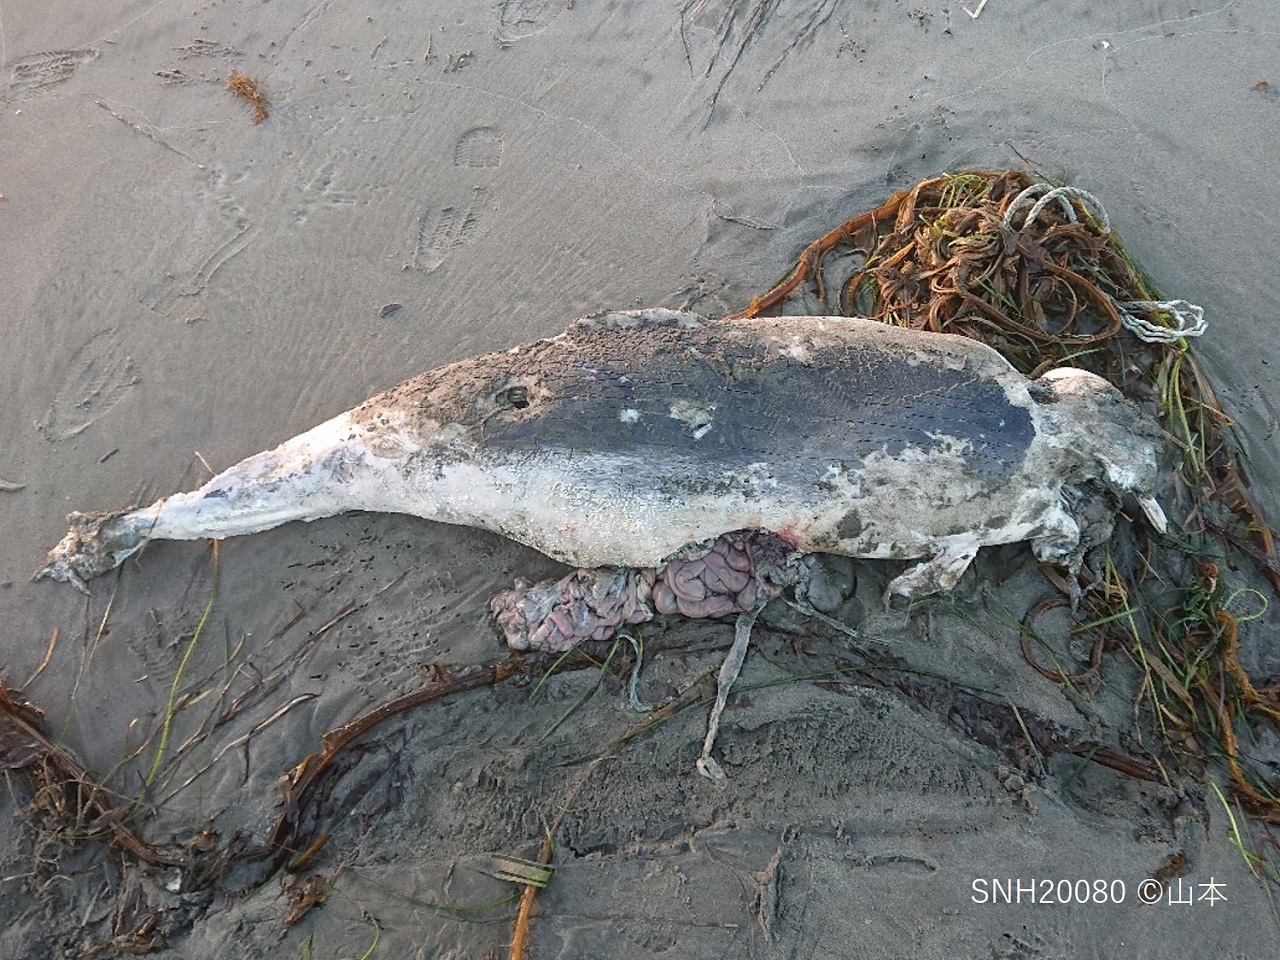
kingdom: Animalia
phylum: Chordata
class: Mammalia
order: Cetacea
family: Phocoenidae
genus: Phocoena
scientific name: Phocoena phocoena
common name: Harbour porpoise
